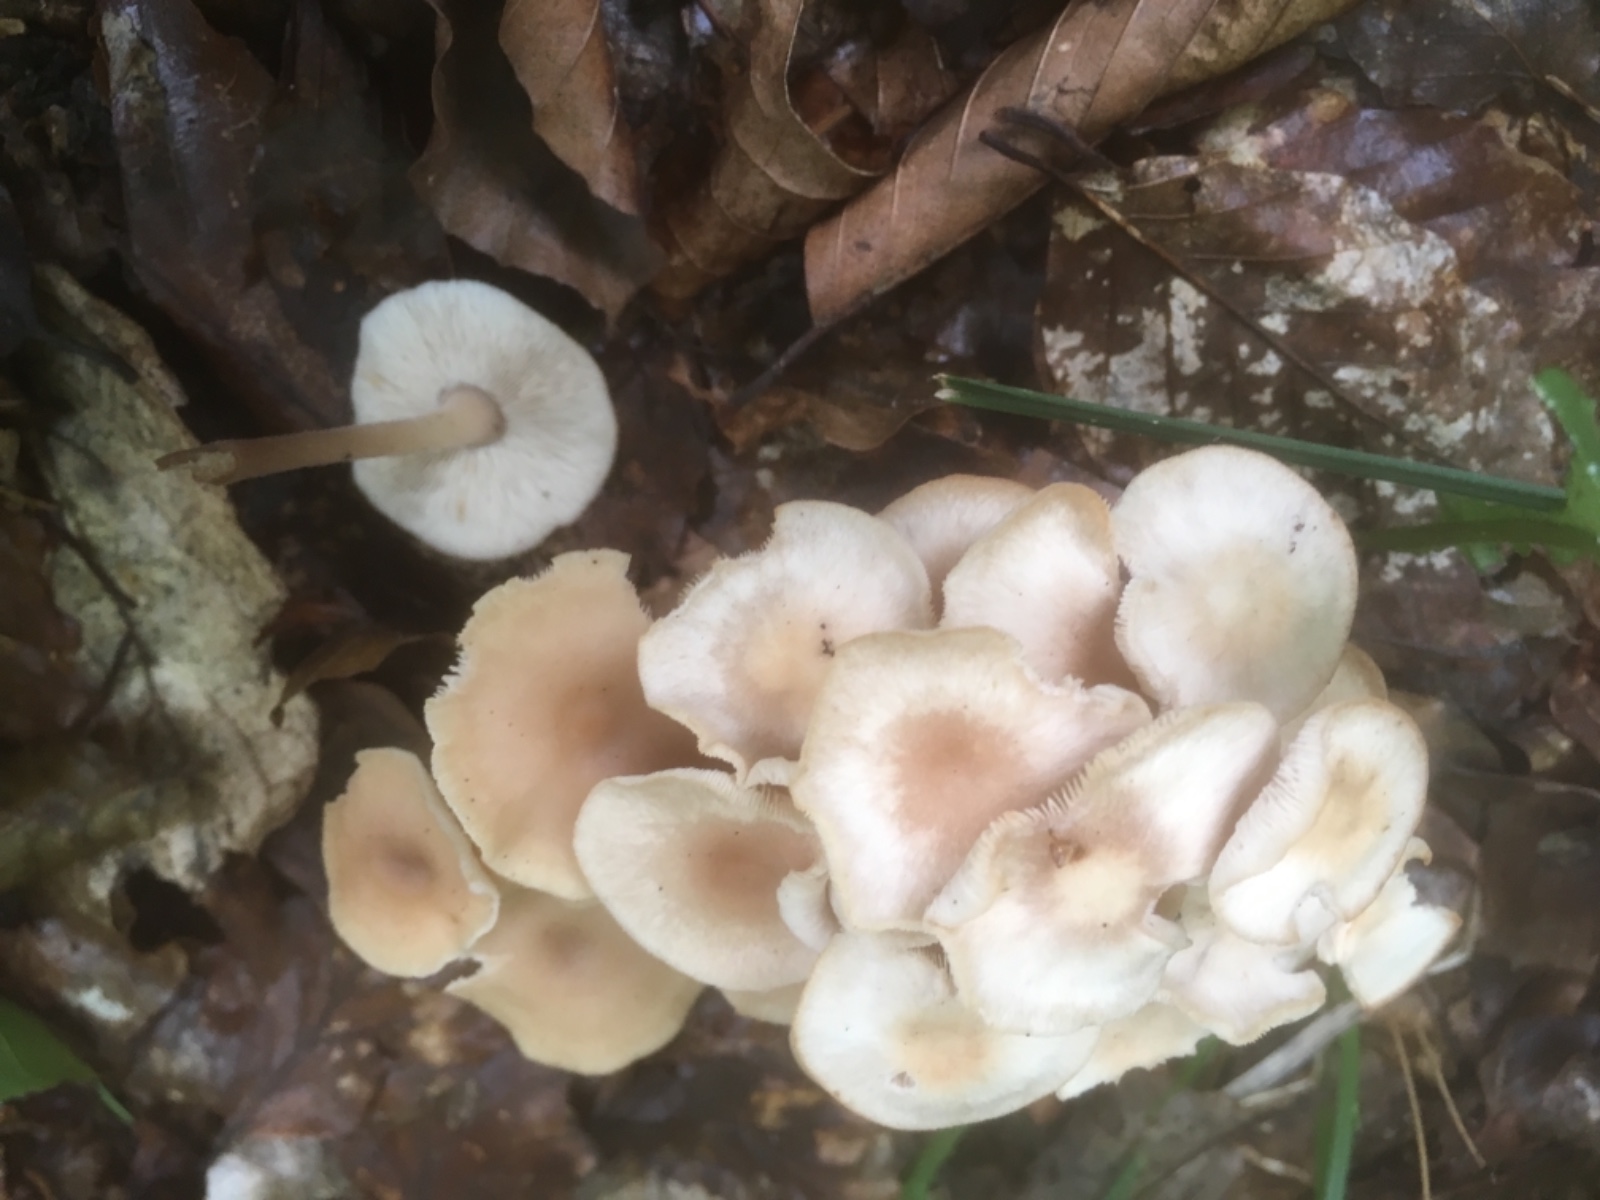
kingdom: Fungi
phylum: Basidiomycota
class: Agaricomycetes
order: Agaricales
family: Omphalotaceae
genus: Collybiopsis
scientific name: Collybiopsis confluens
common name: knippe-fladhat
